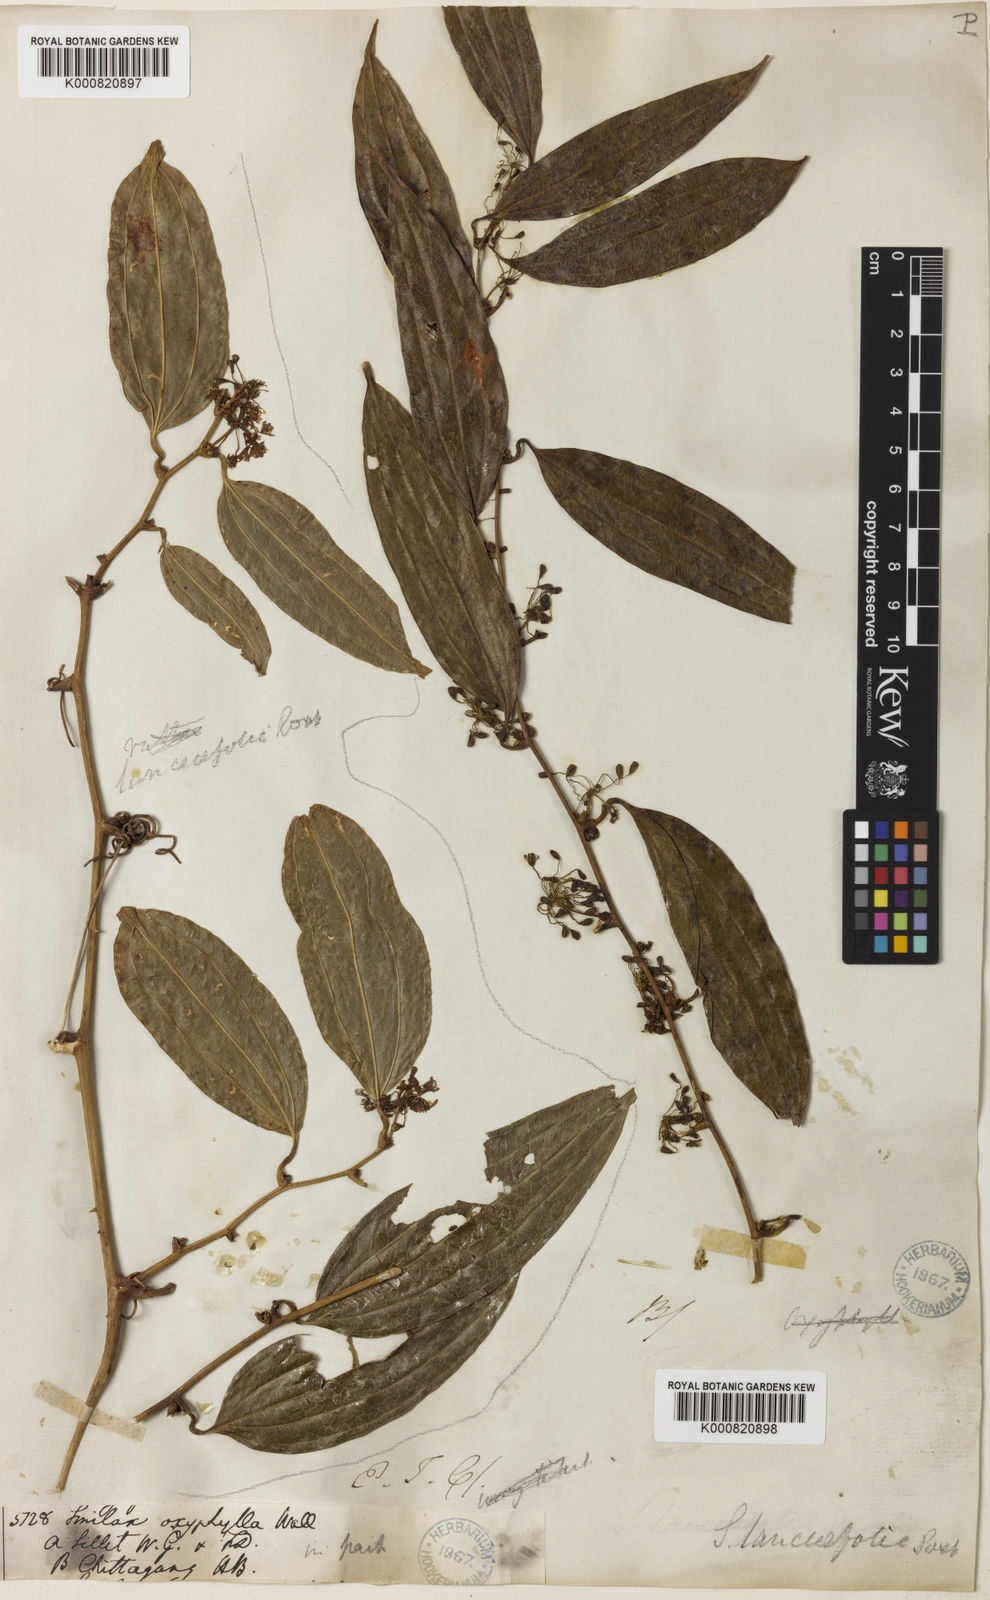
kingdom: Plantae
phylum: Tracheophyta
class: Liliopsida
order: Liliales
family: Smilacaceae
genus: Smilax
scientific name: Smilax
